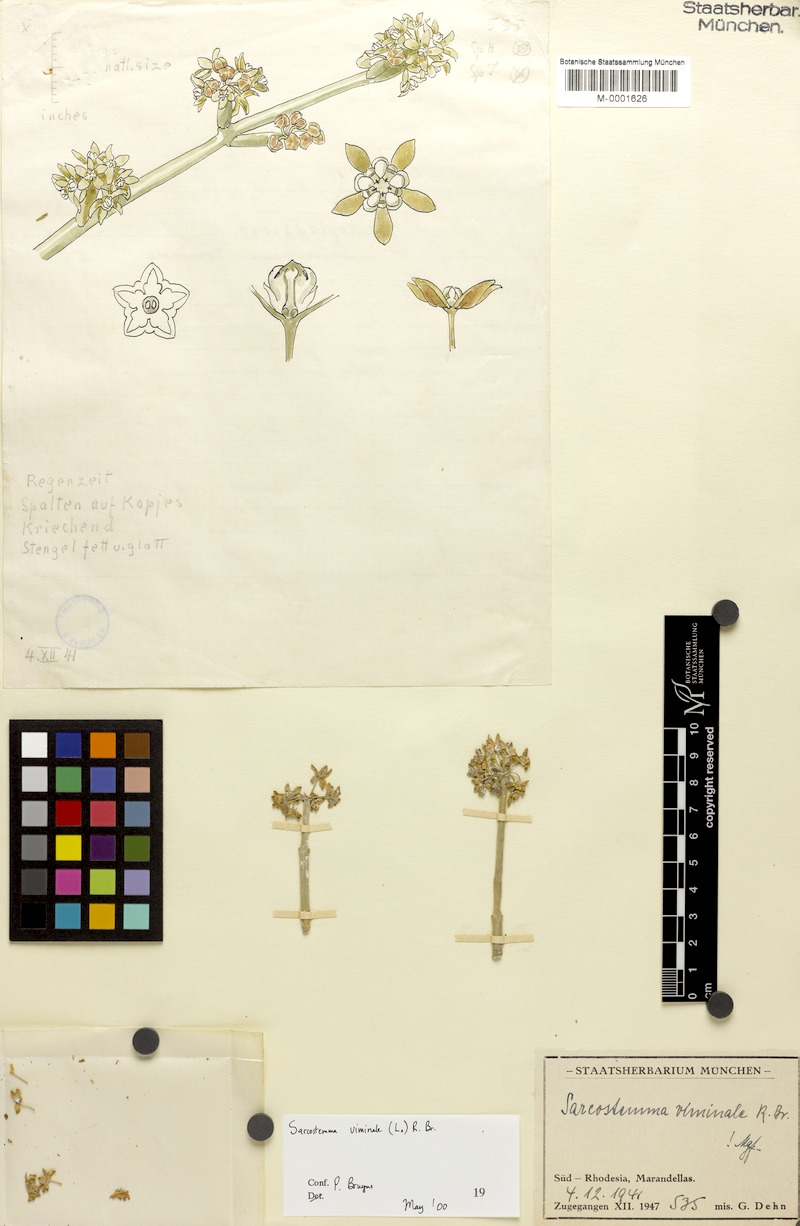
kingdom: Plantae
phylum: Tracheophyta
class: Magnoliopsida
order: Gentianales
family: Apocynaceae
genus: Cynanchum
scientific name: Cynanchum viminale
